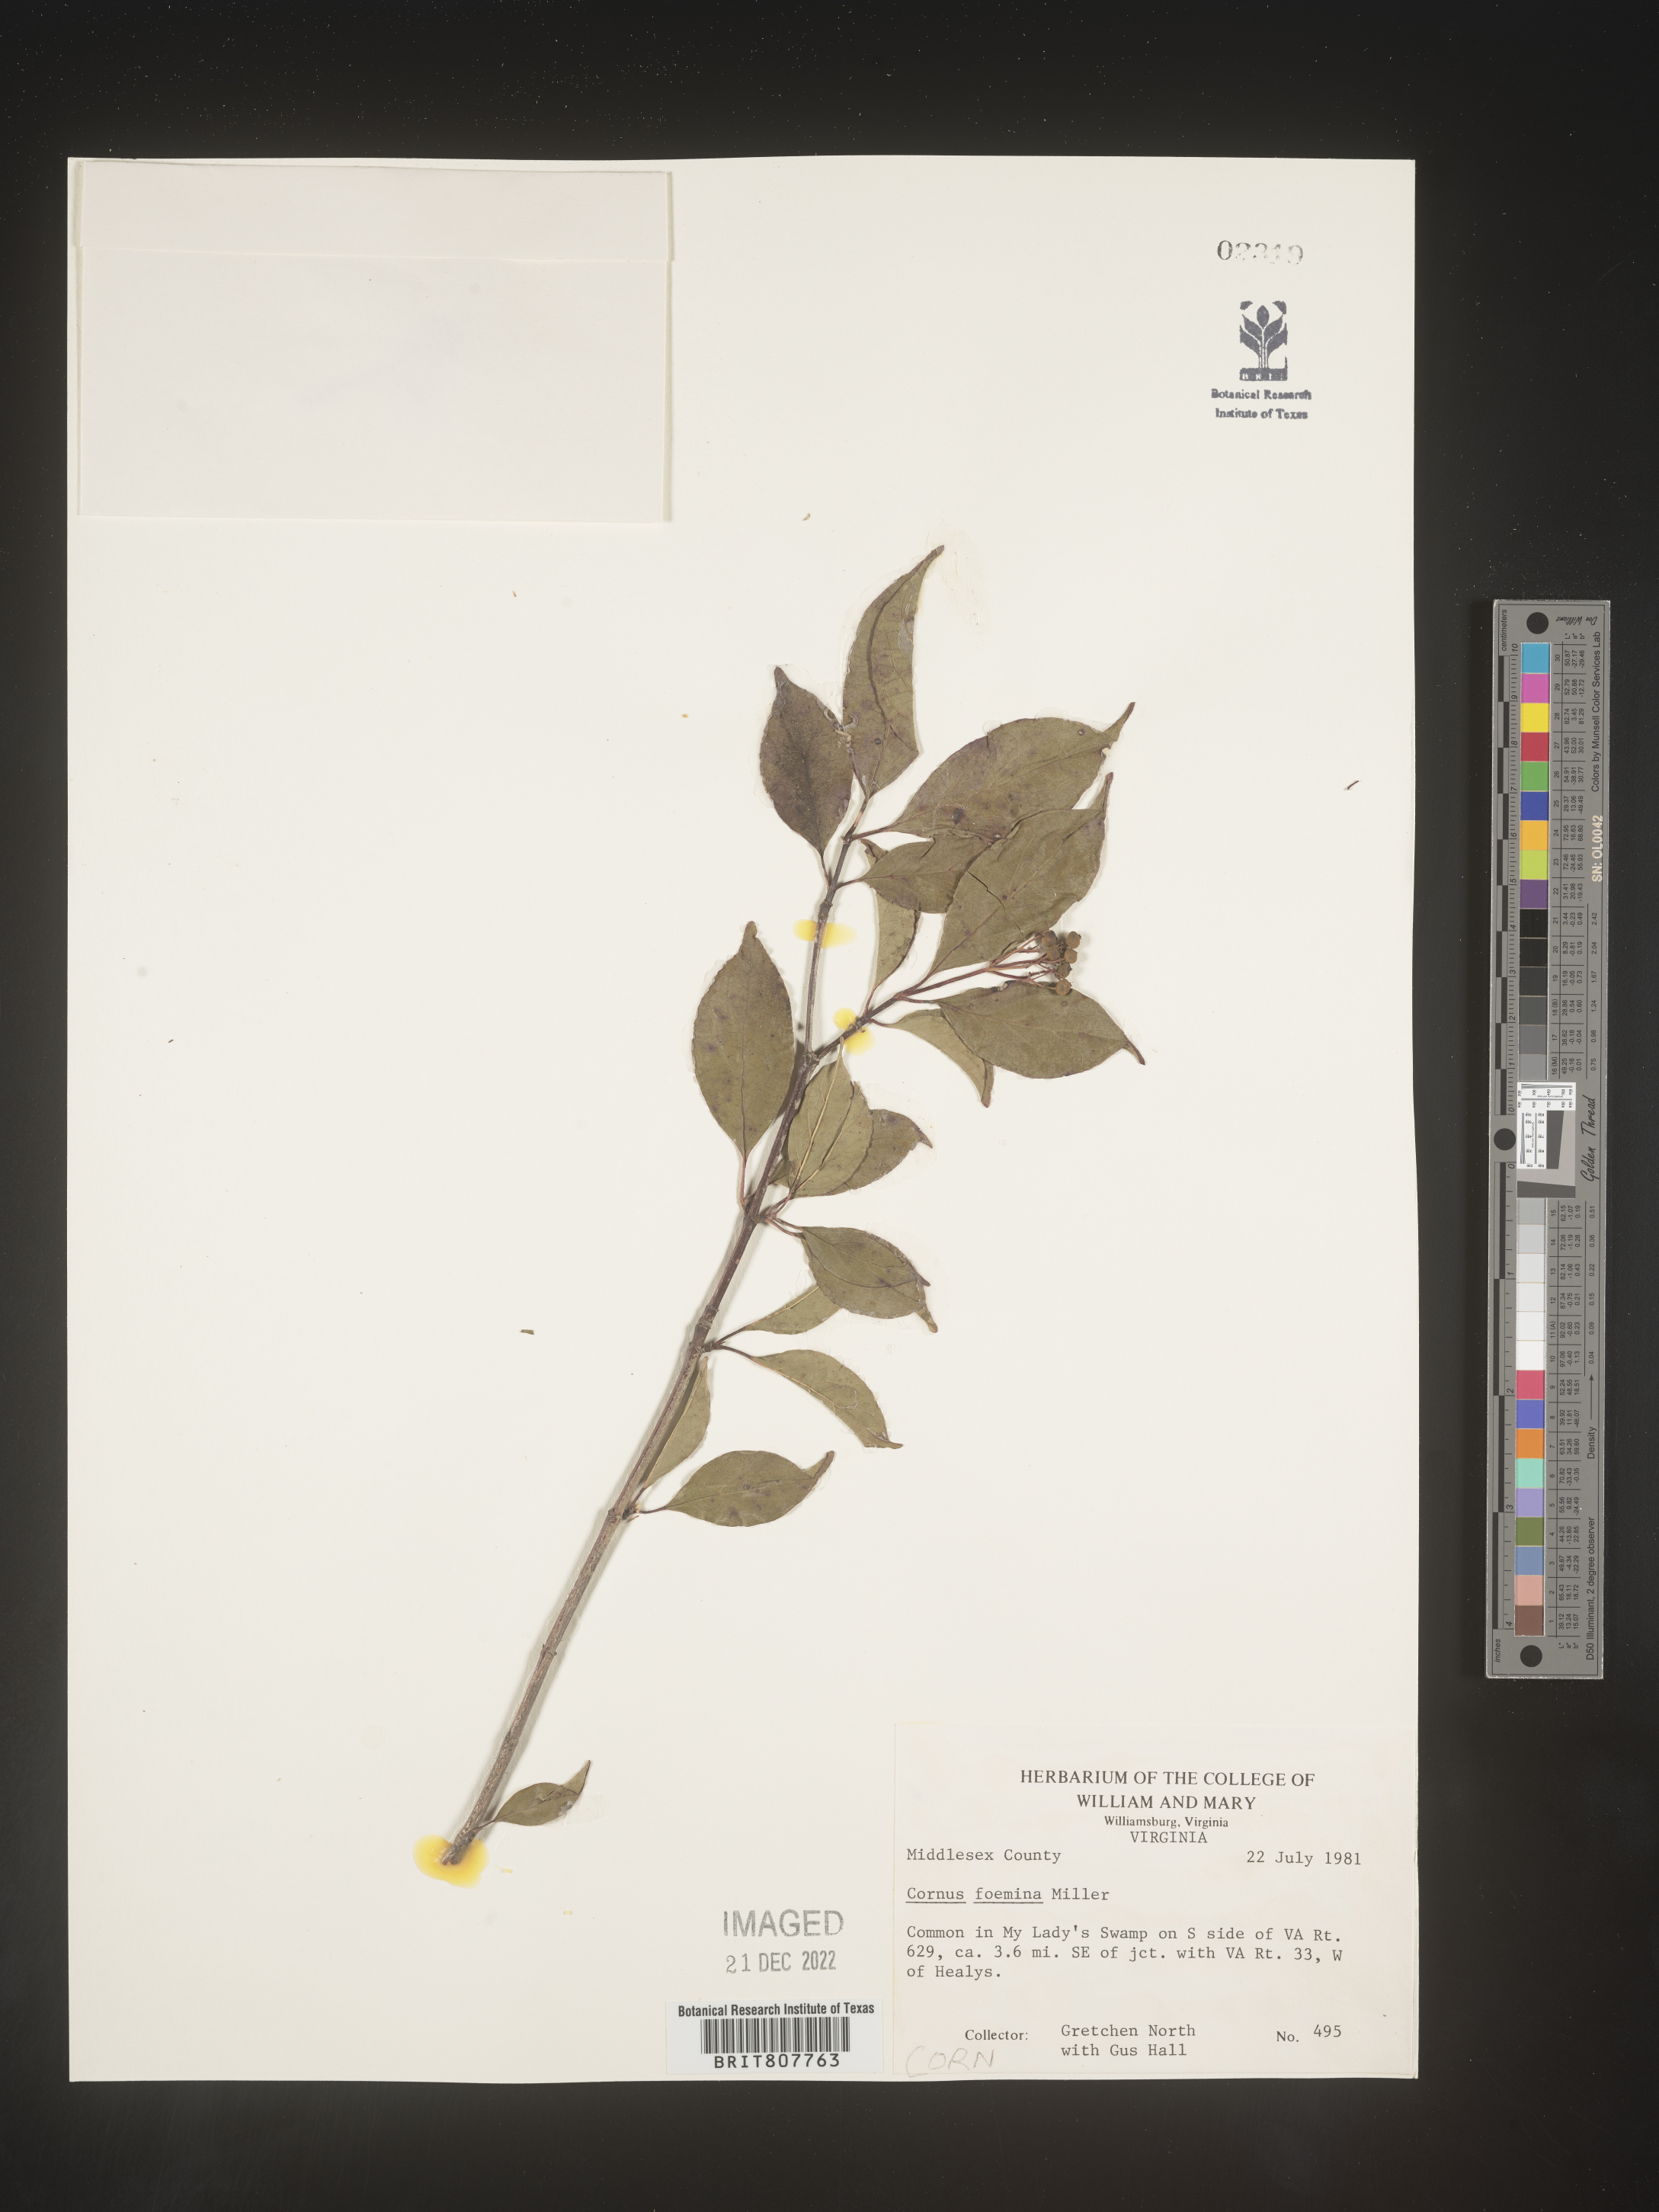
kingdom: Plantae
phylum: Tracheophyta
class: Magnoliopsida
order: Cornales
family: Cornaceae
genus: Cornus
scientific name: Cornus foemina
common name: Swamp dogwood
